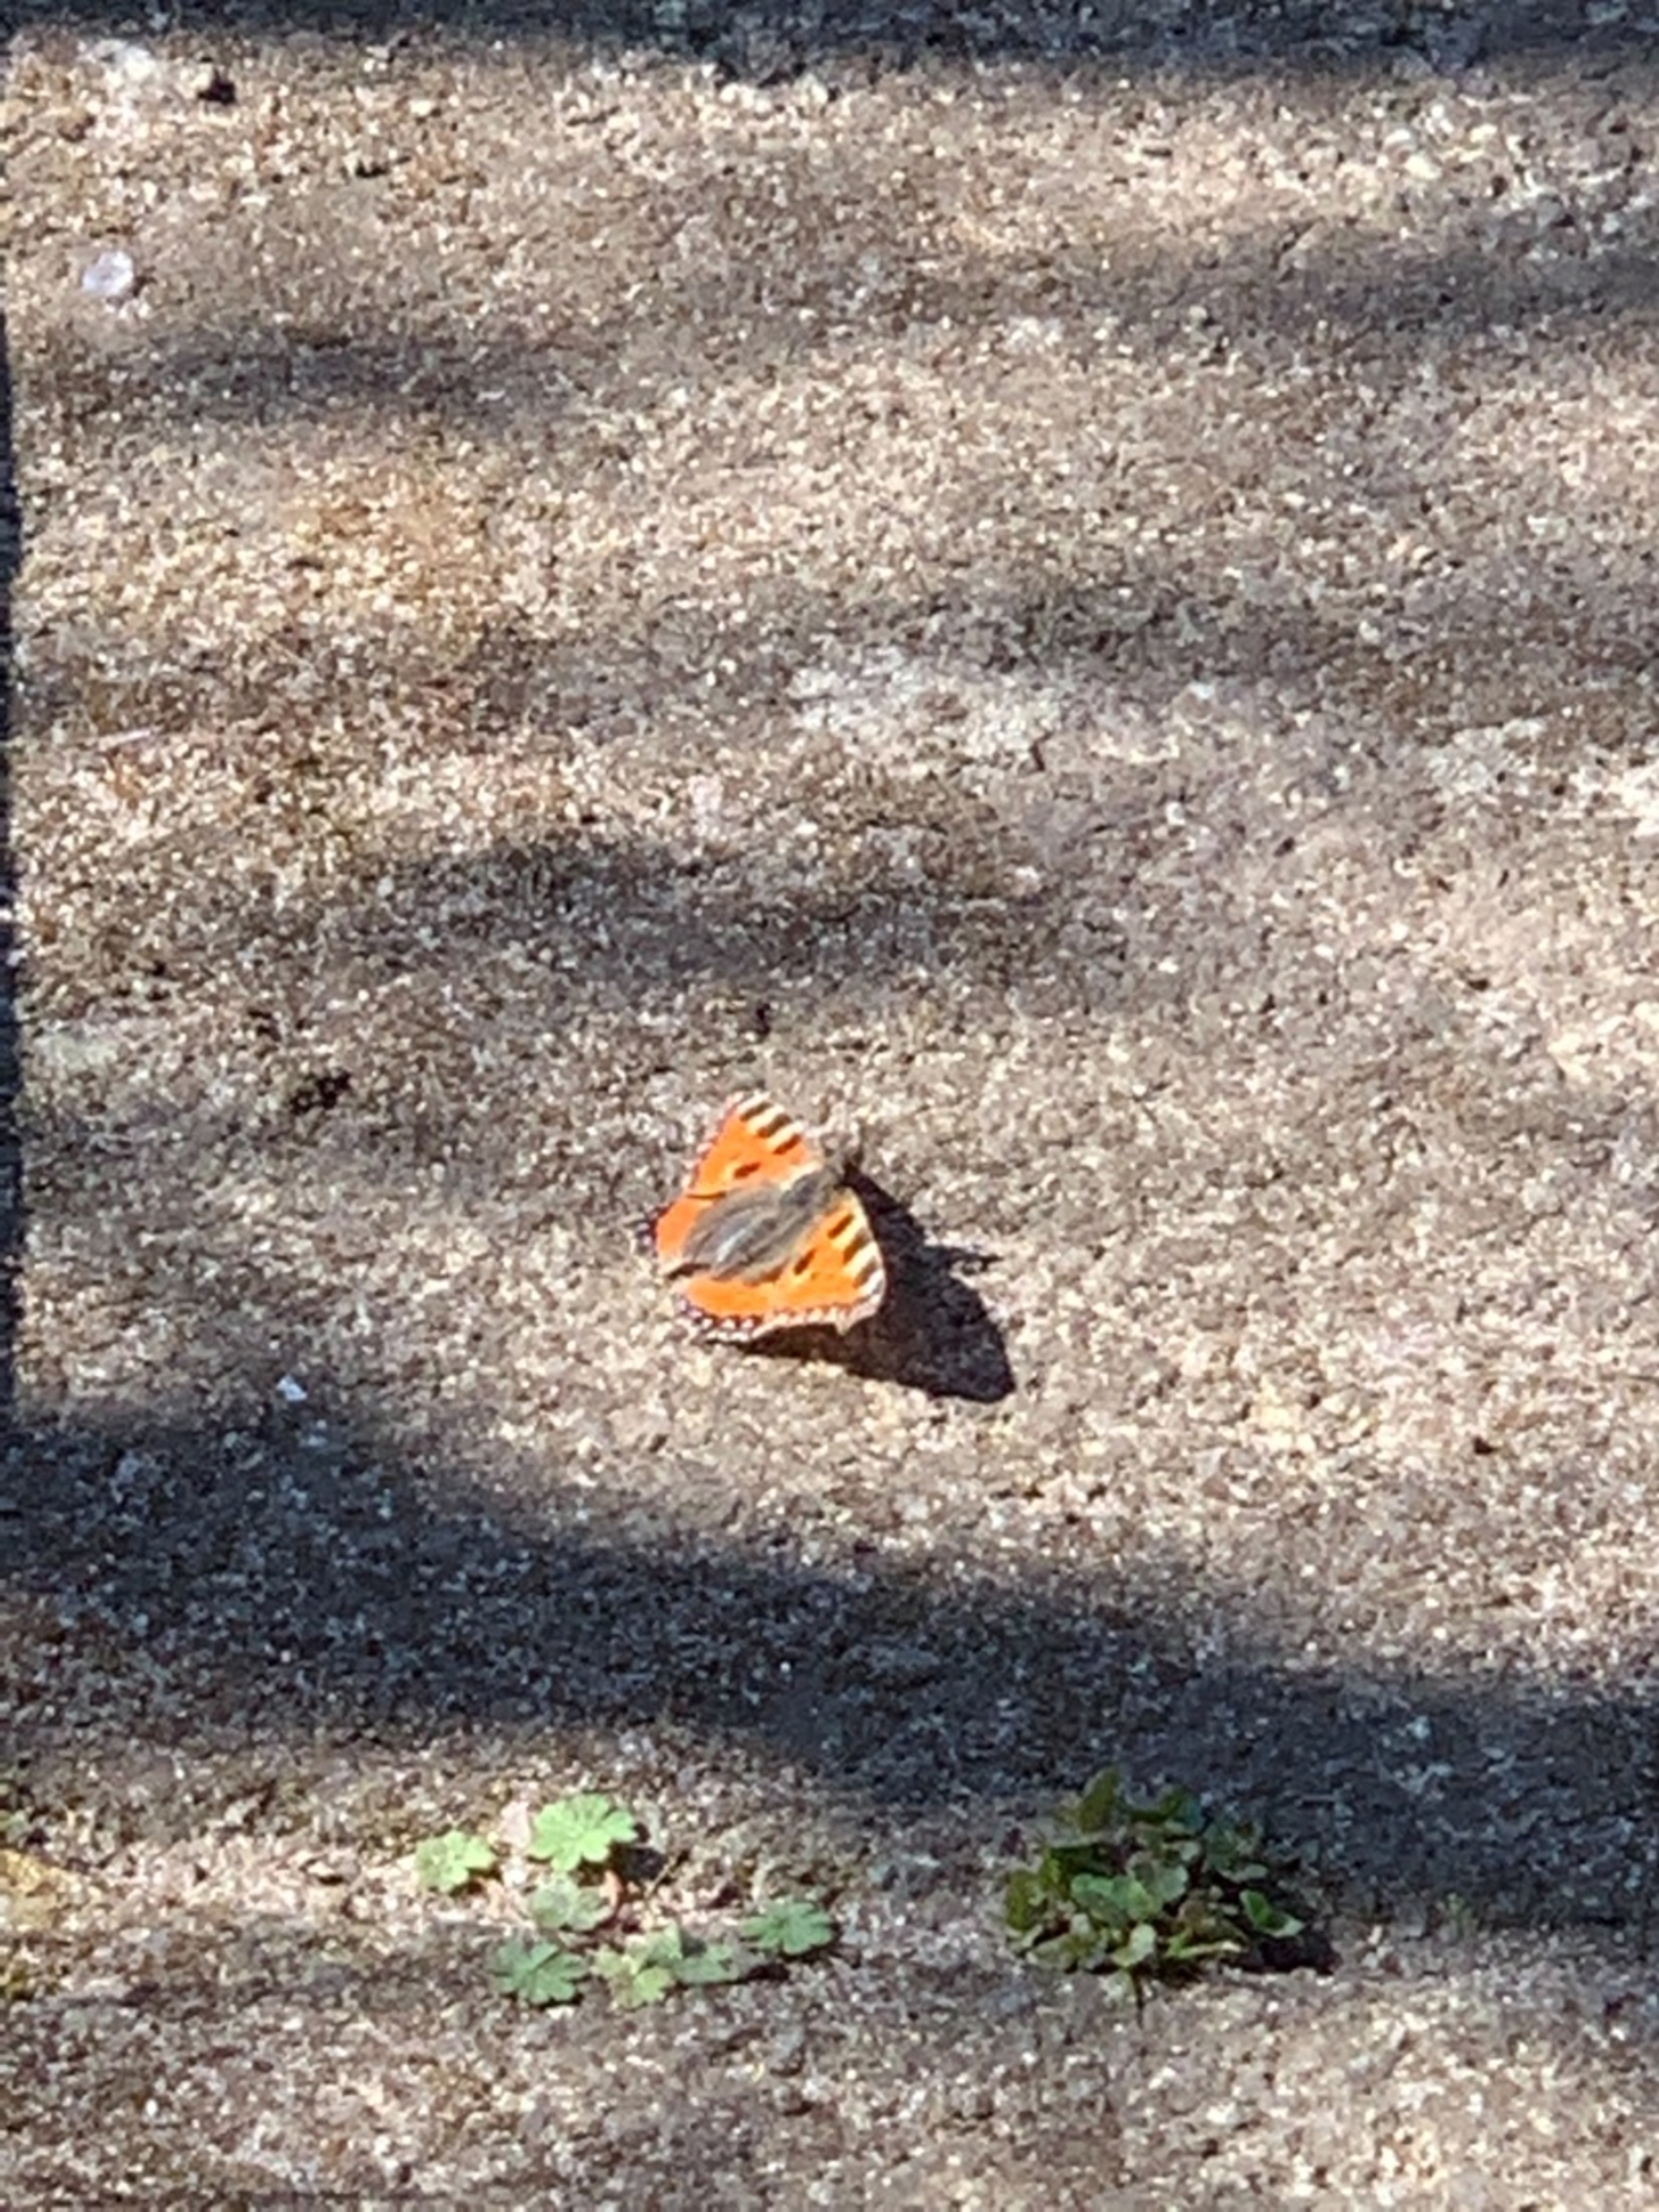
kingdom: Animalia
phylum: Arthropoda
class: Insecta
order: Lepidoptera
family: Nymphalidae
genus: Aglais
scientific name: Aglais urticae
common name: Nældens takvinge
